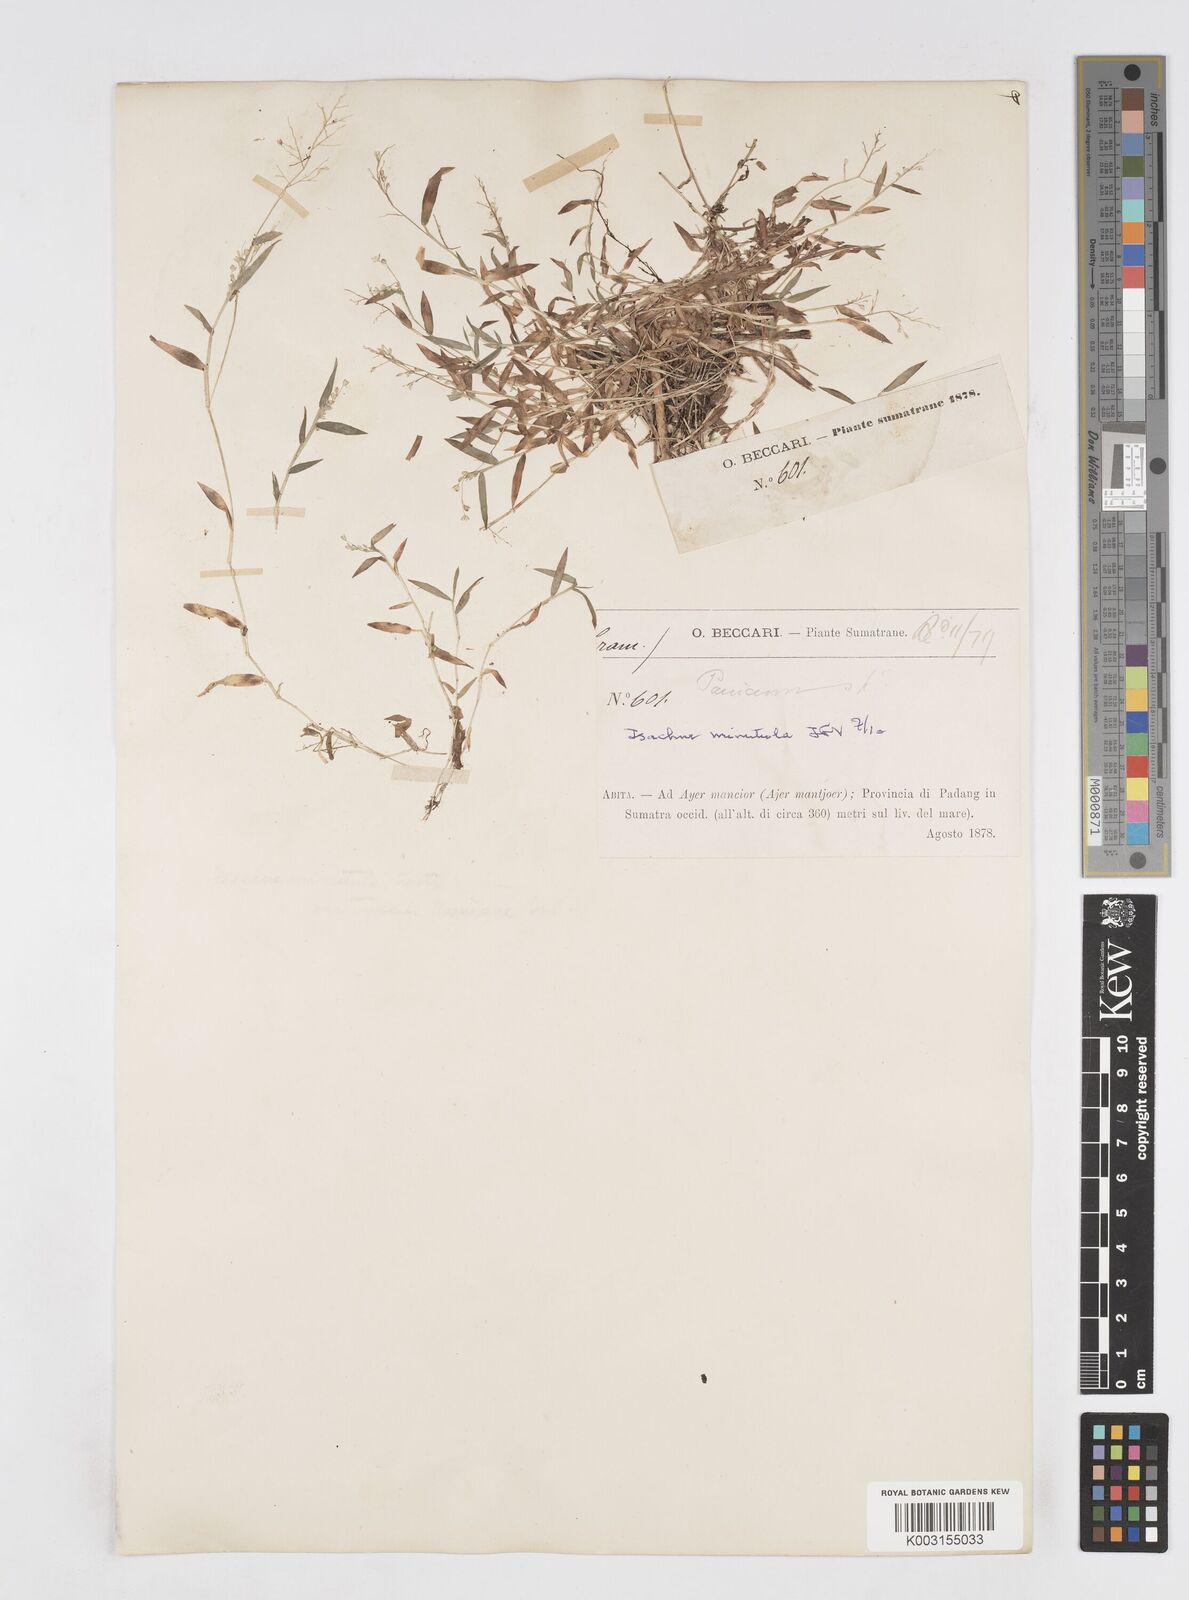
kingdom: Plantae
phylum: Tracheophyta
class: Liliopsida
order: Poales
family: Poaceae
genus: Isachne
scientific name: Isachne globosa
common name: Swamp millet
